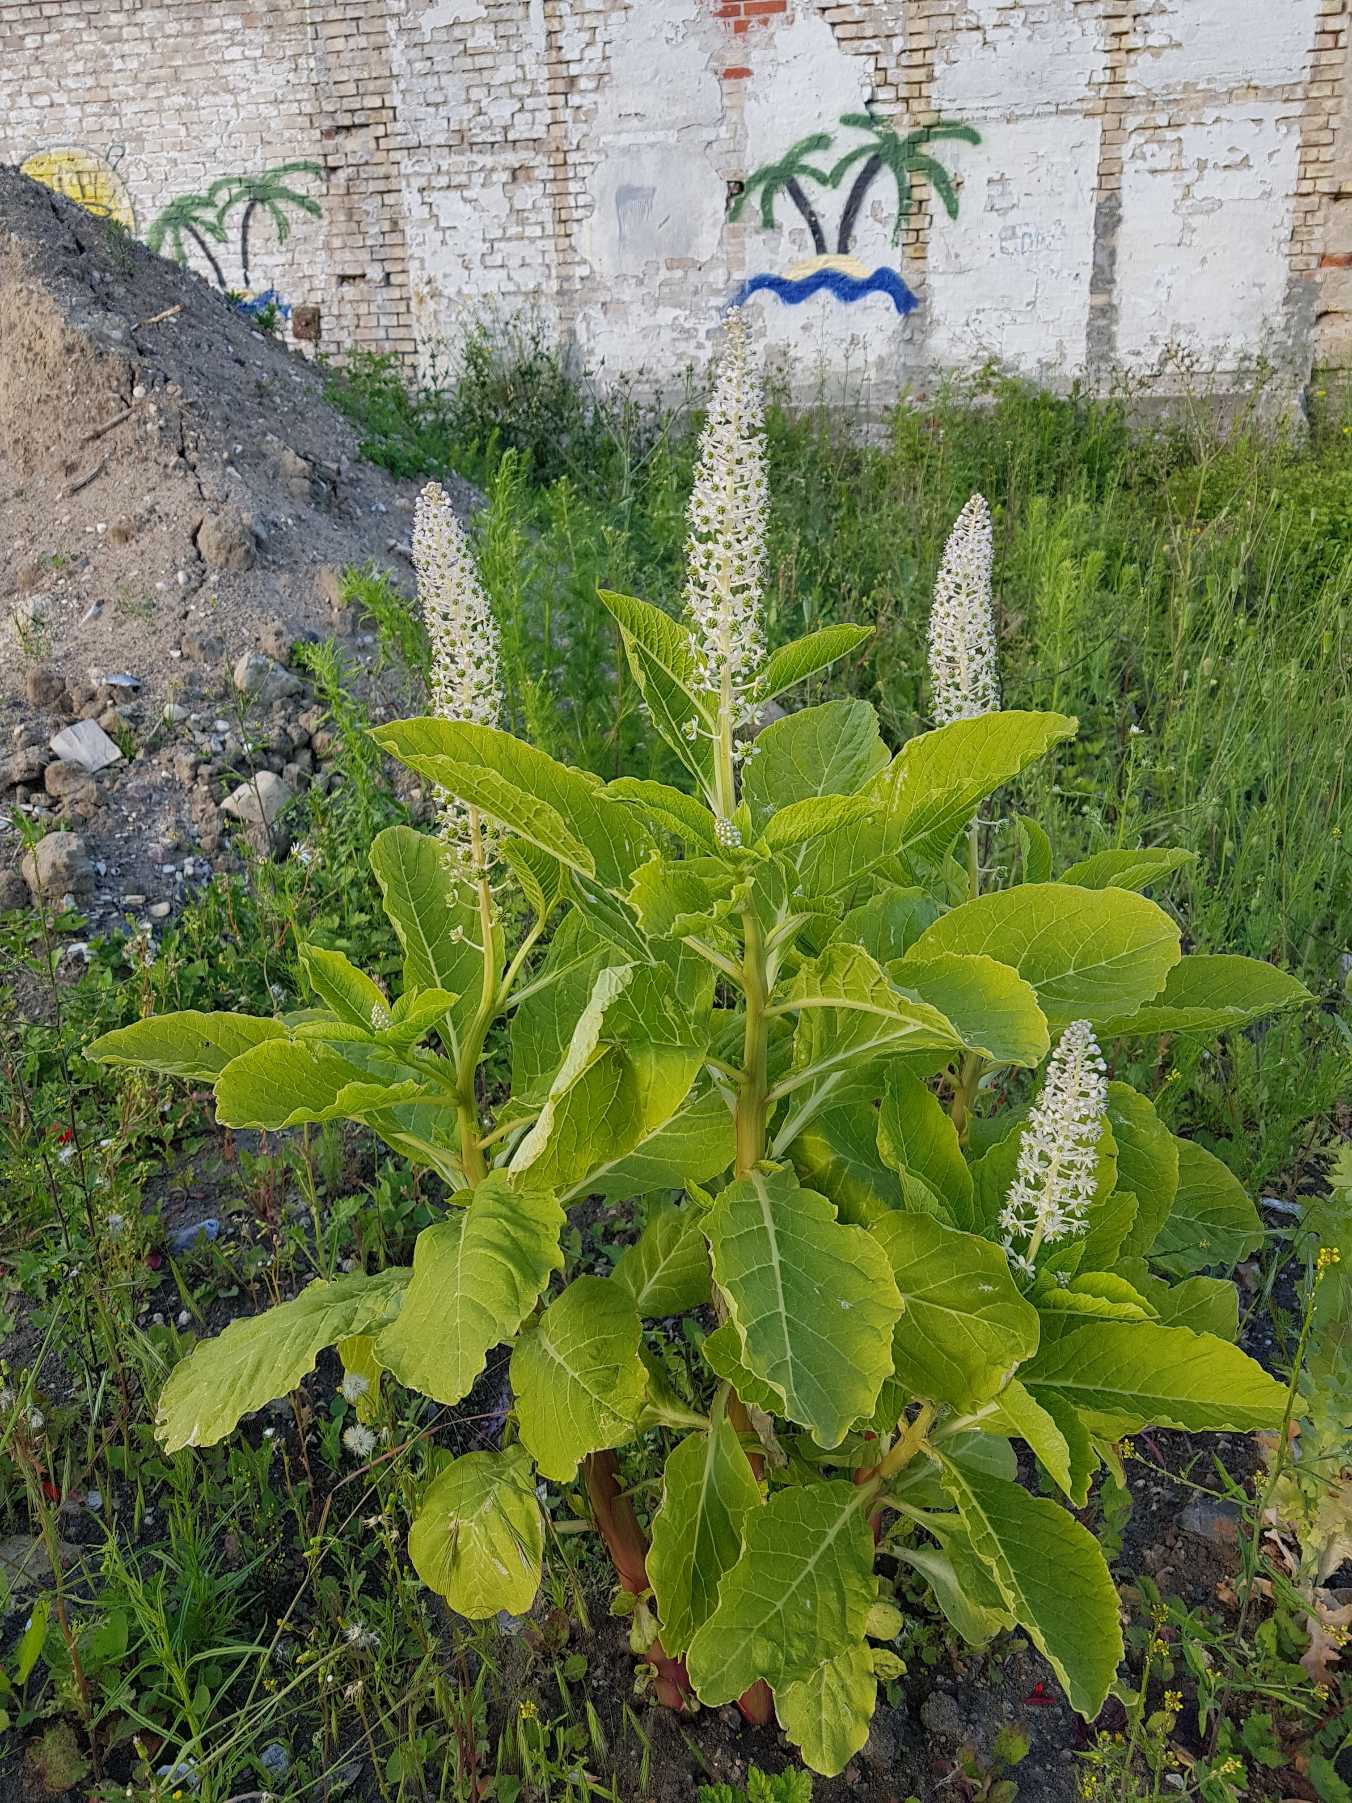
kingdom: Plantae
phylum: Tracheophyta
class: Magnoliopsida
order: Caryophyllales
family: Phytolaccaceae
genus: Phytolacca
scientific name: Phytolacca acinosa
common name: Asiatisk kermesbær
